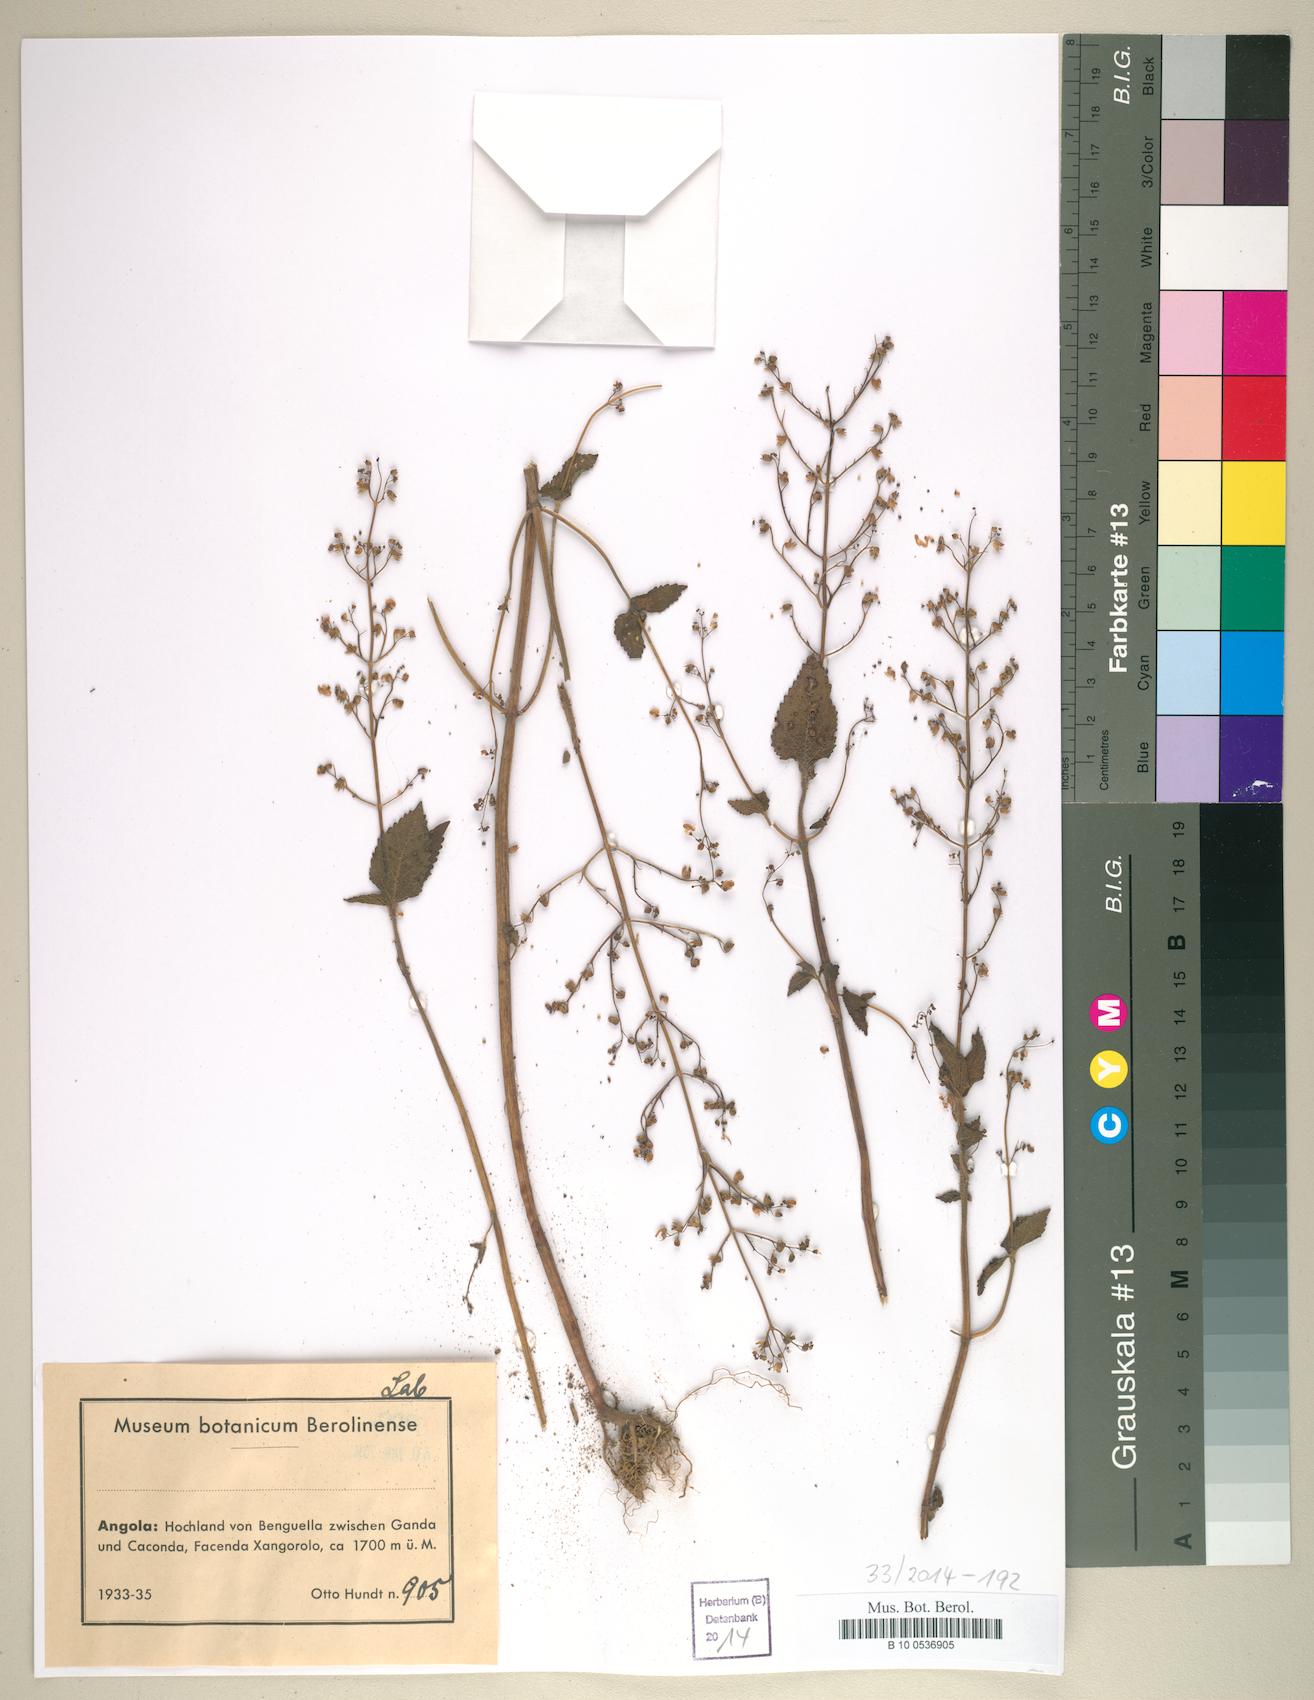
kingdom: Plantae
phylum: Tracheophyta
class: Magnoliopsida
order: Lamiales
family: Lamiaceae
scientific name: Lamiaceae
